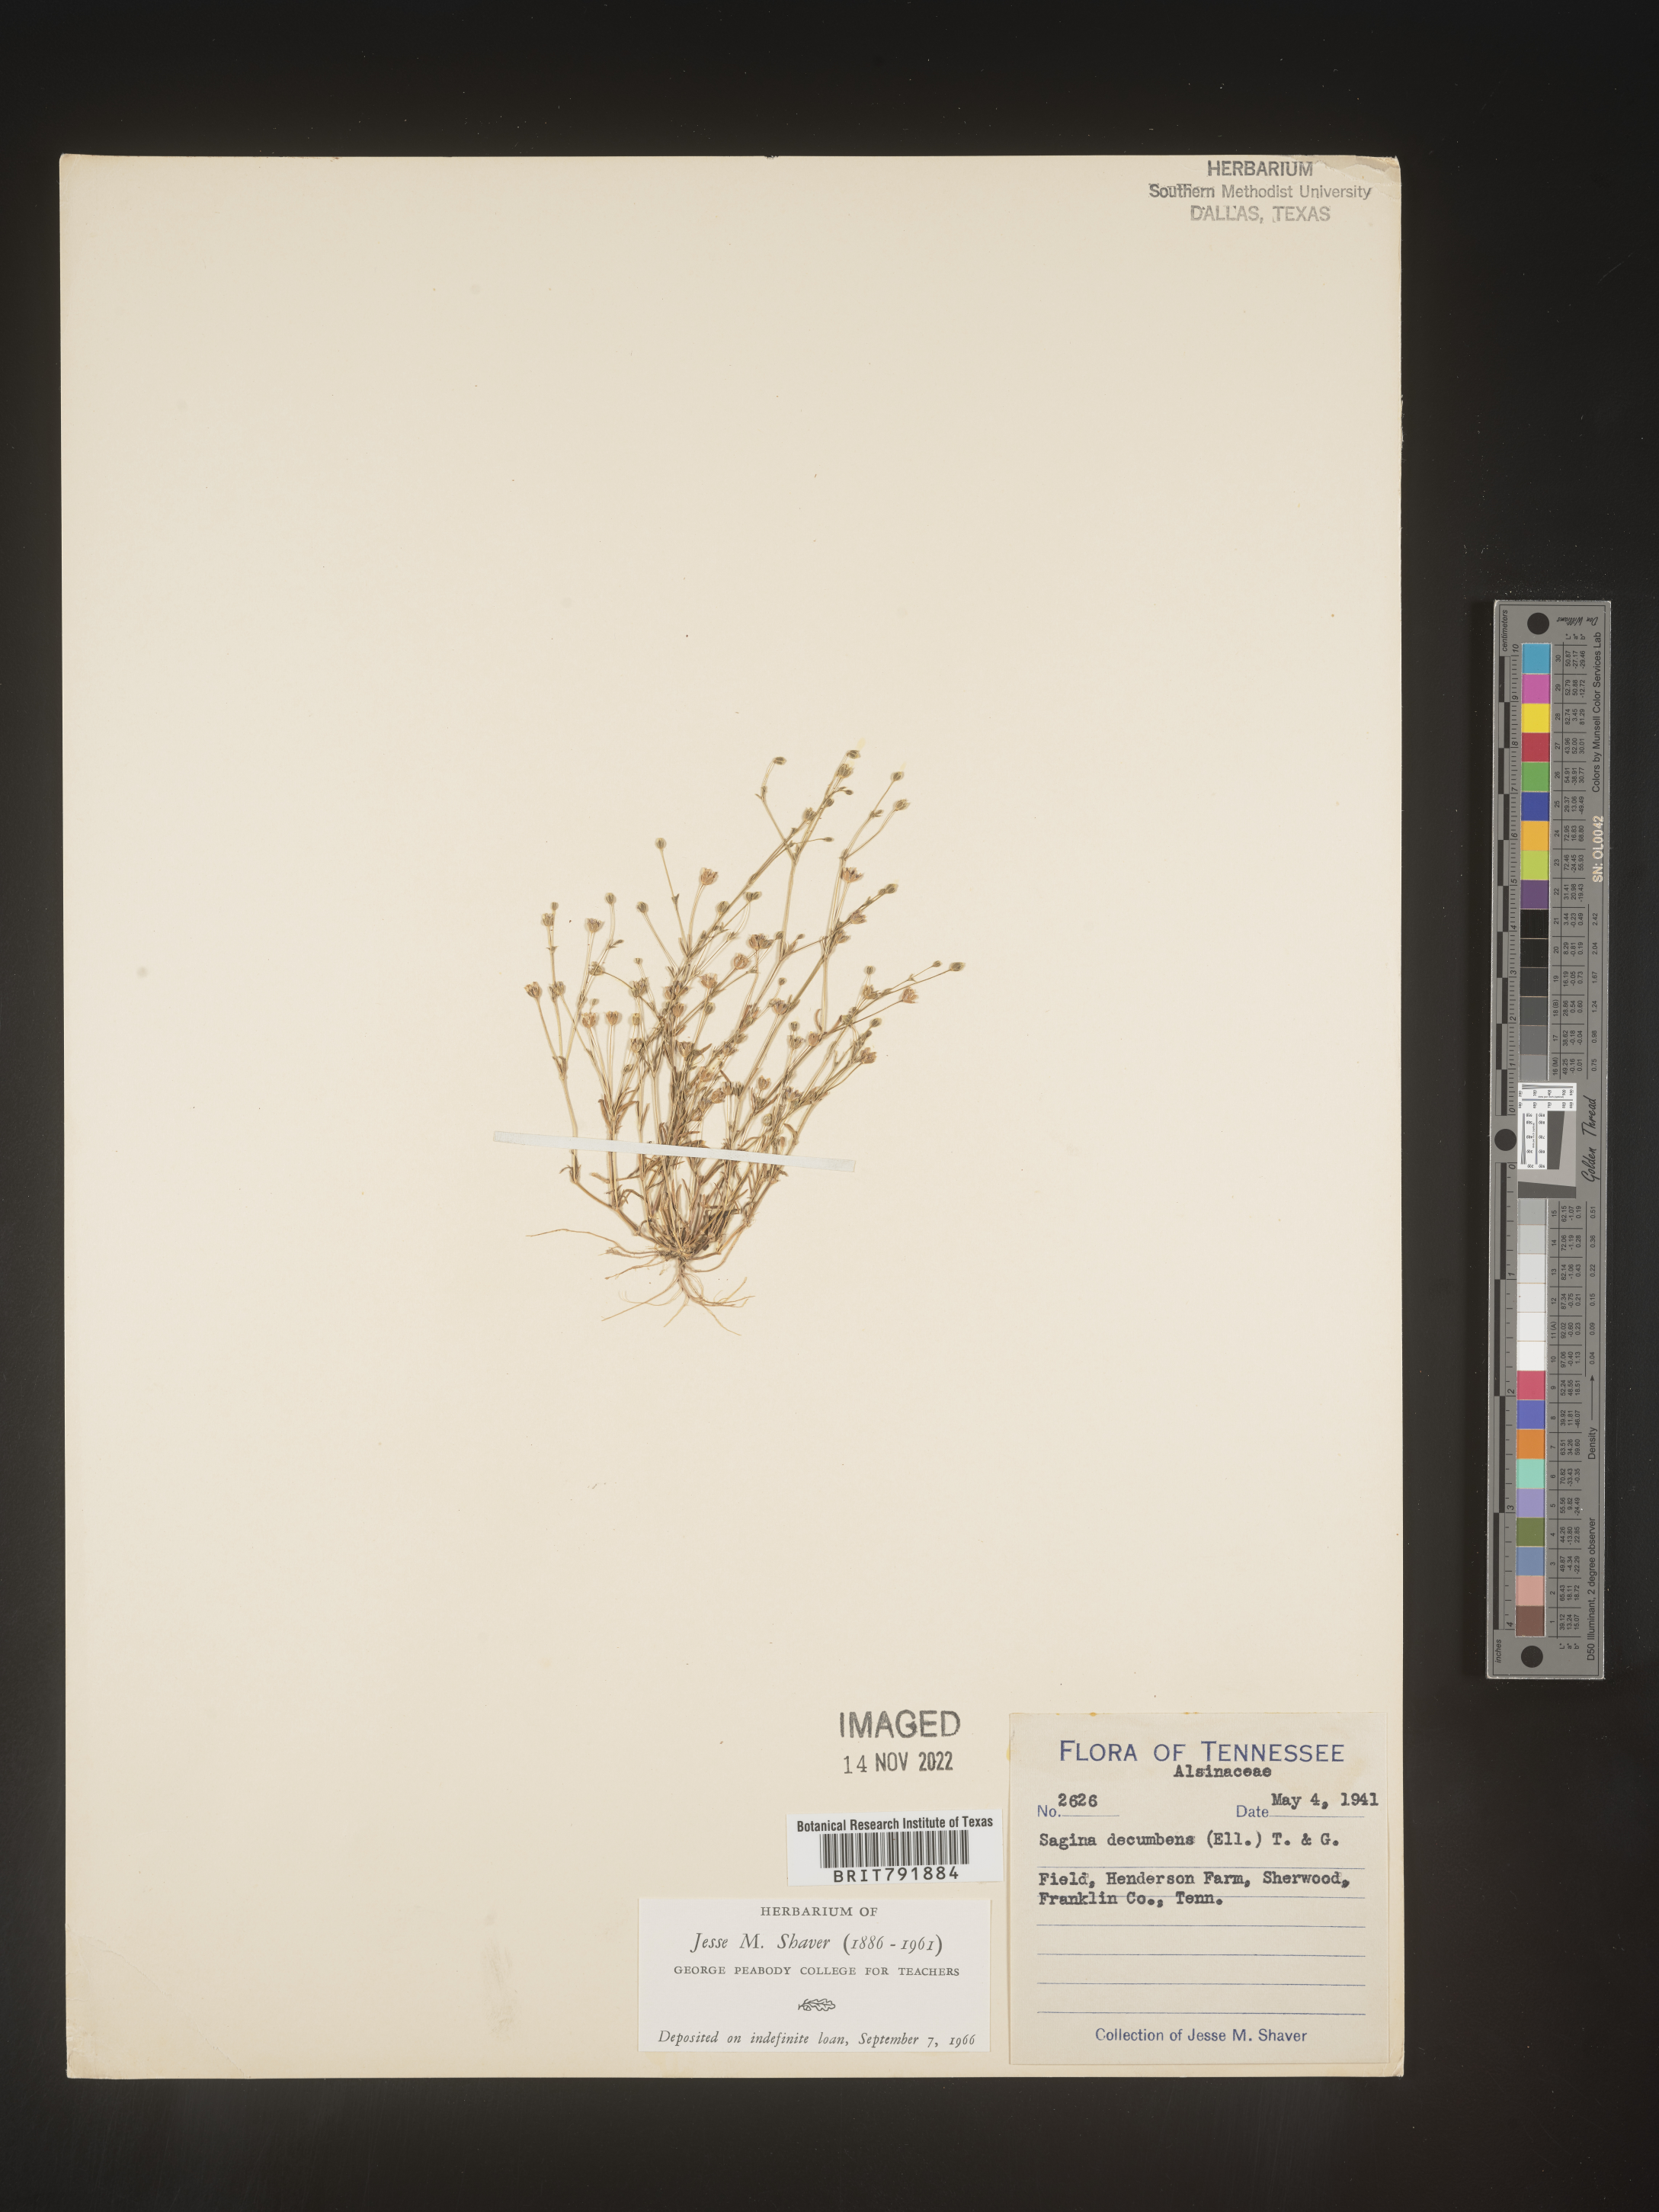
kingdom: Plantae
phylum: Tracheophyta
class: Magnoliopsida
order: Caryophyllales
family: Caryophyllaceae
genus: Sagina
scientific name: Sagina decumbens
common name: Decumbent pearlwort
